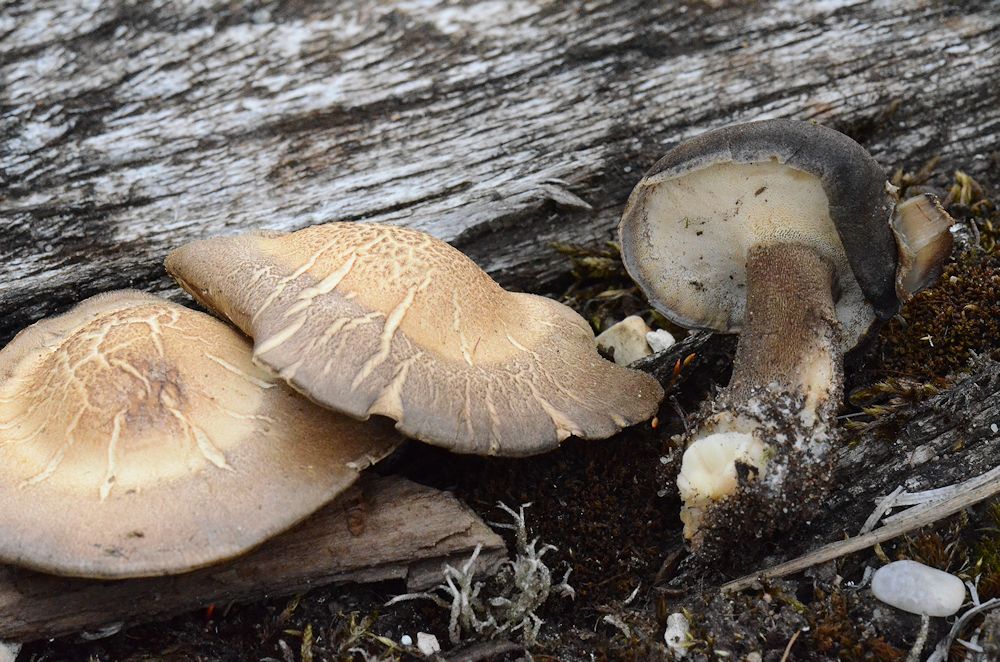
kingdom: Fungi
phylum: Basidiomycota
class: Agaricomycetes
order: Polyporales
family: Polyporaceae
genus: Lentinus
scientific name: Lentinus substrictus
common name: forårs-stilkporesvamp
